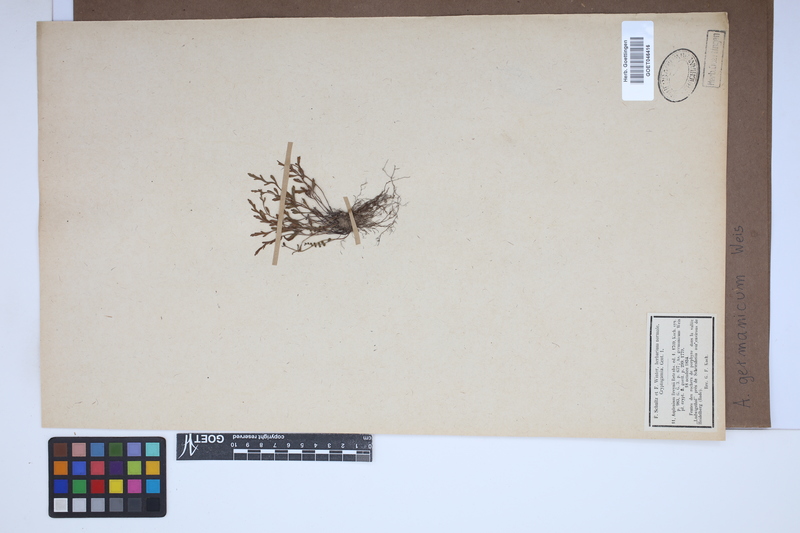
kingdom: Plantae
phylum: Tracheophyta
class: Polypodiopsida
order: Polypodiales
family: Aspleniaceae
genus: Asplenium
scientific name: Asplenium
